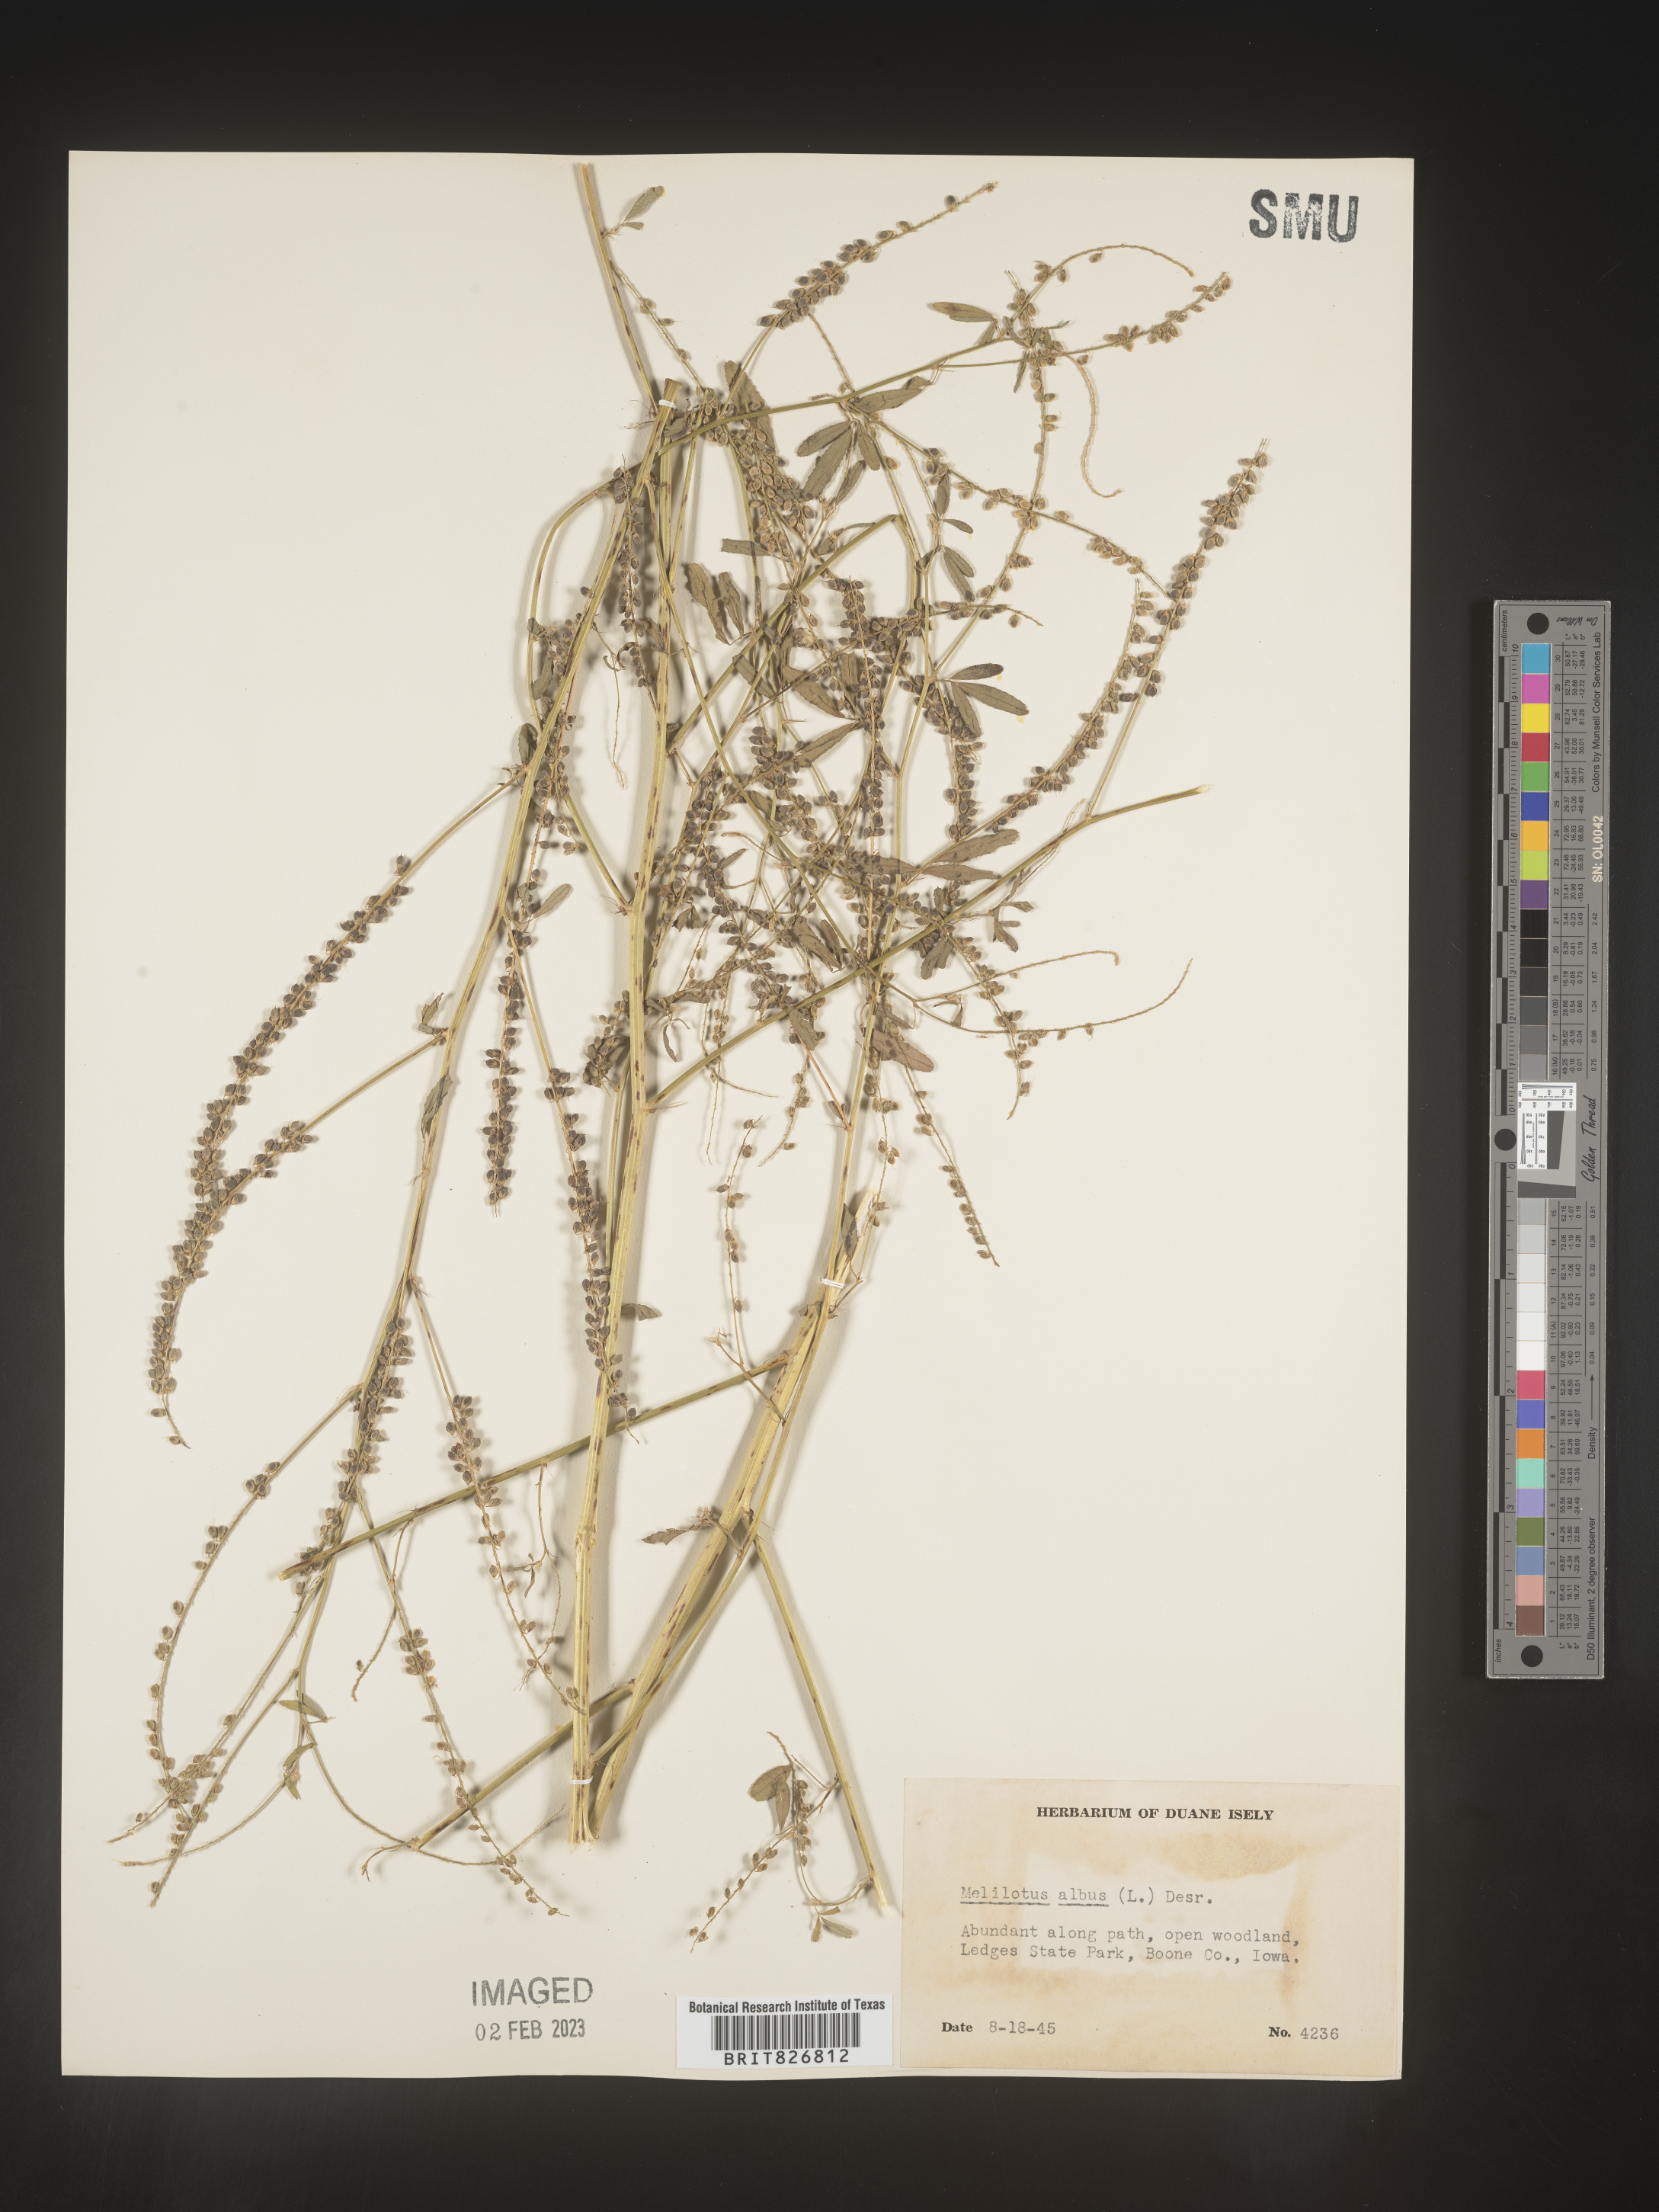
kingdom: Plantae
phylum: Tracheophyta
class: Magnoliopsida
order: Fabales
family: Fabaceae
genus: Melilotus
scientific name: Melilotus albus
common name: White melilot
